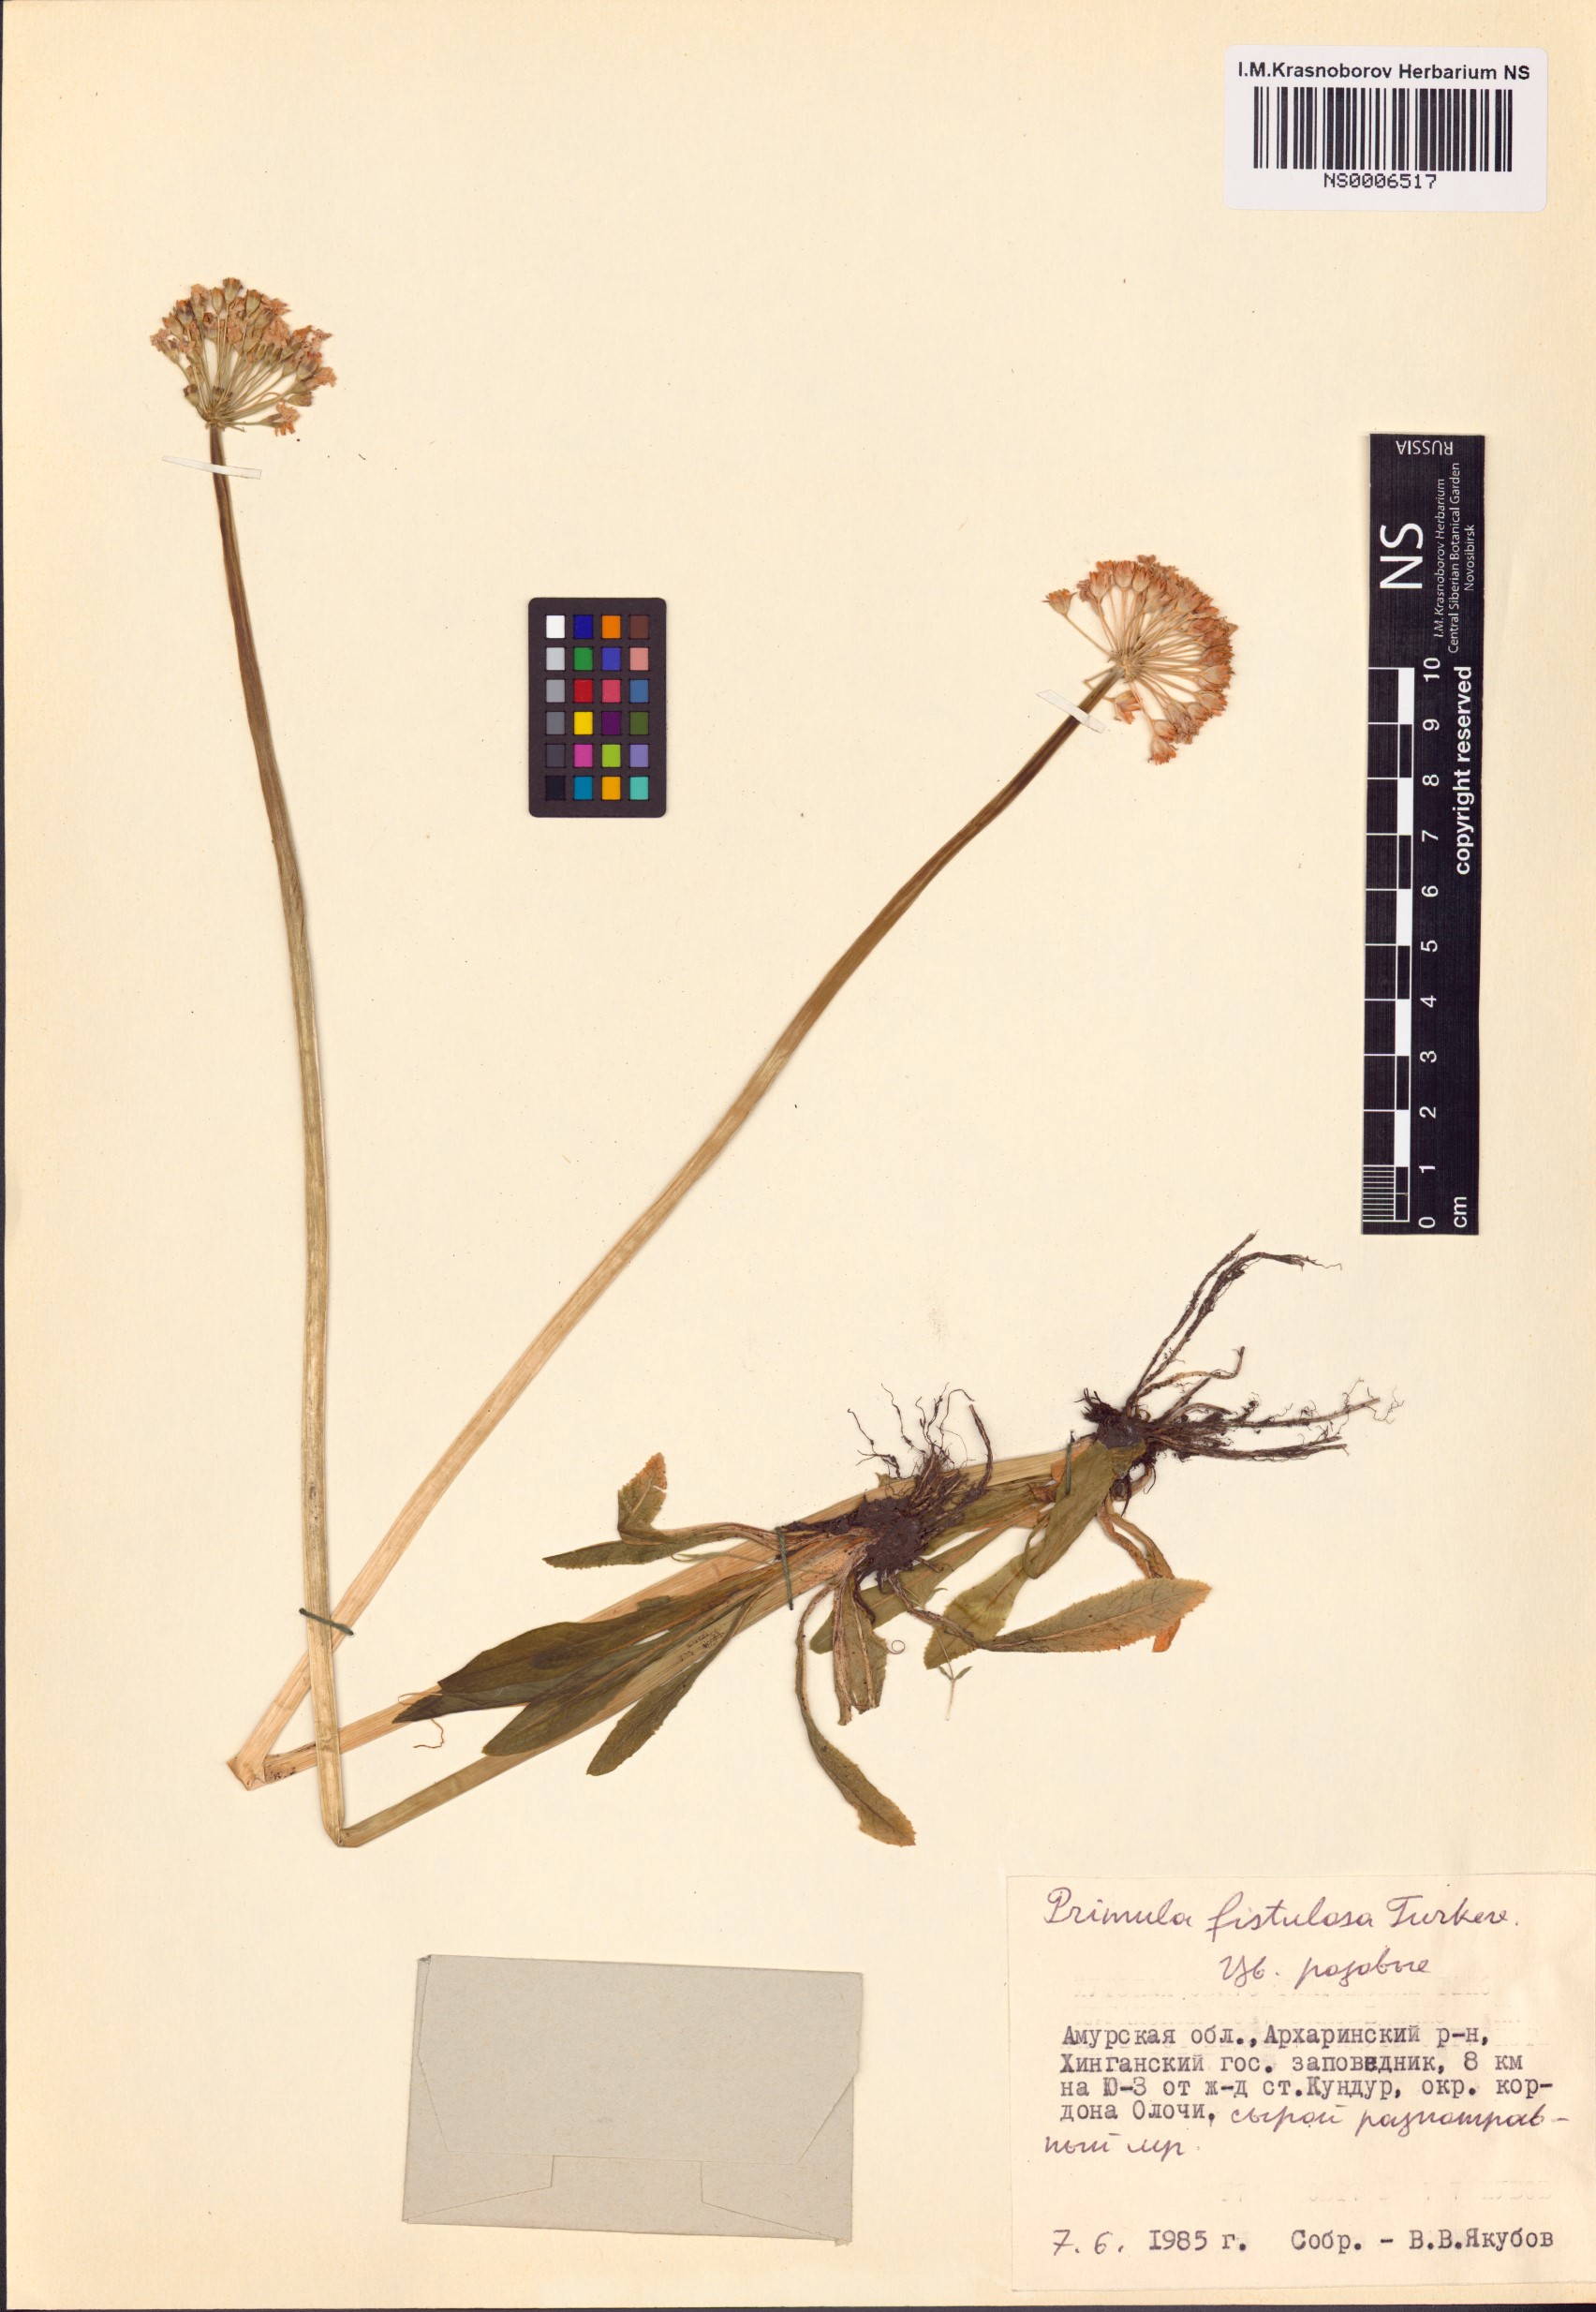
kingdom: Plantae
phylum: Tracheophyta
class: Magnoliopsida
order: Ericales
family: Primulaceae
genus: Primula
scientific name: Primula fistulosa
